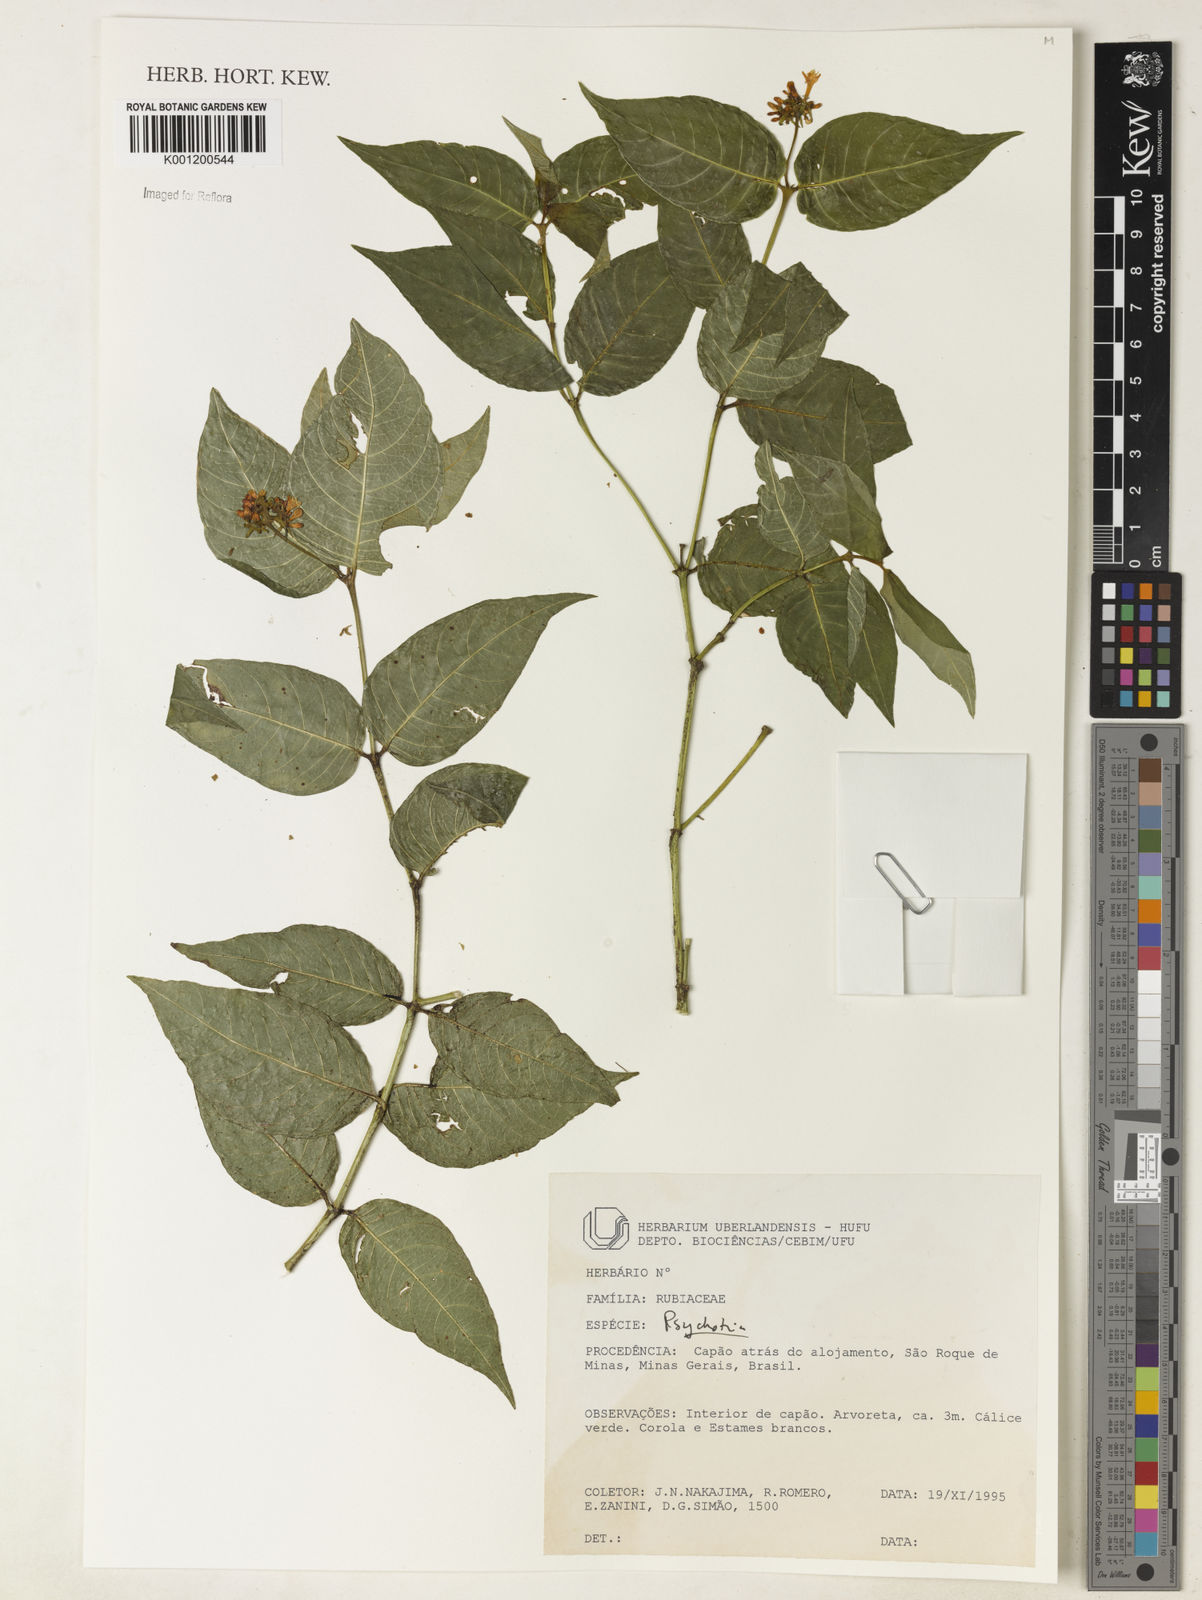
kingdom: Plantae
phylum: Tracheophyta
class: Magnoliopsida
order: Gentianales
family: Rubiaceae
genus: Psychotria
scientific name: Psychotria
